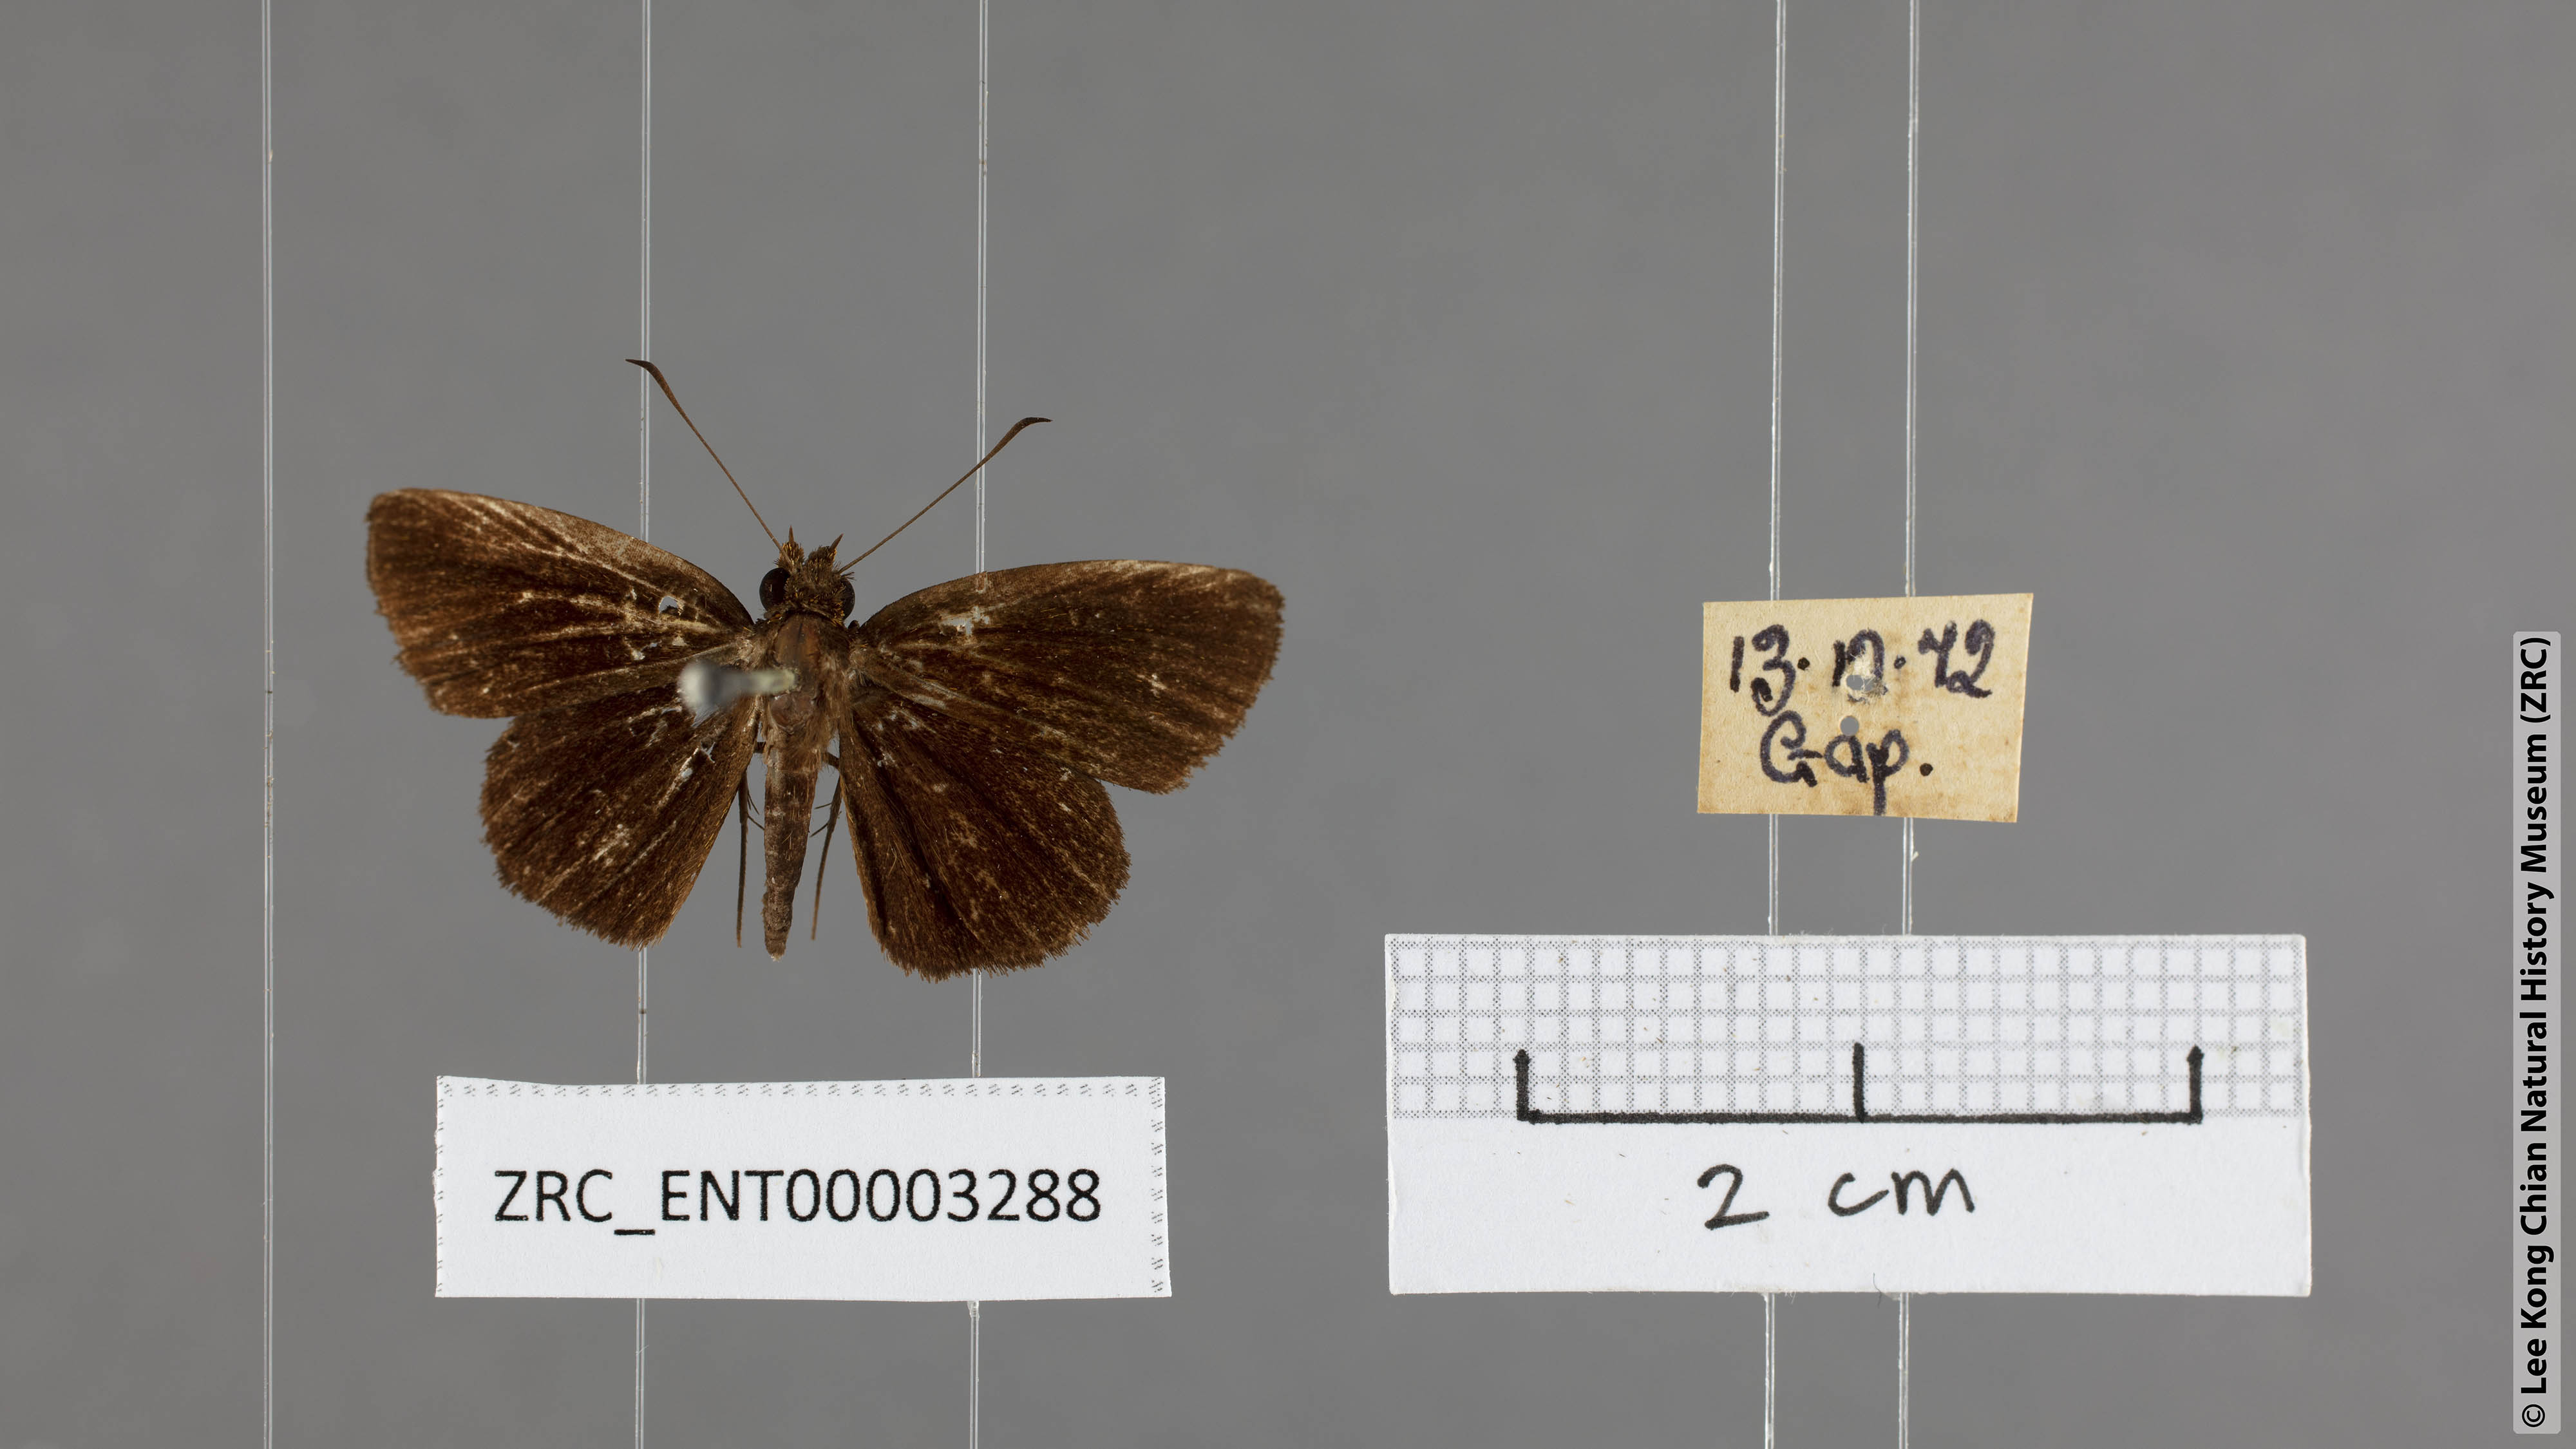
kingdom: Animalia
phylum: Arthropoda
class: Insecta
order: Lepidoptera
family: Hesperiidae
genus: Iambrix
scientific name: Iambrix
